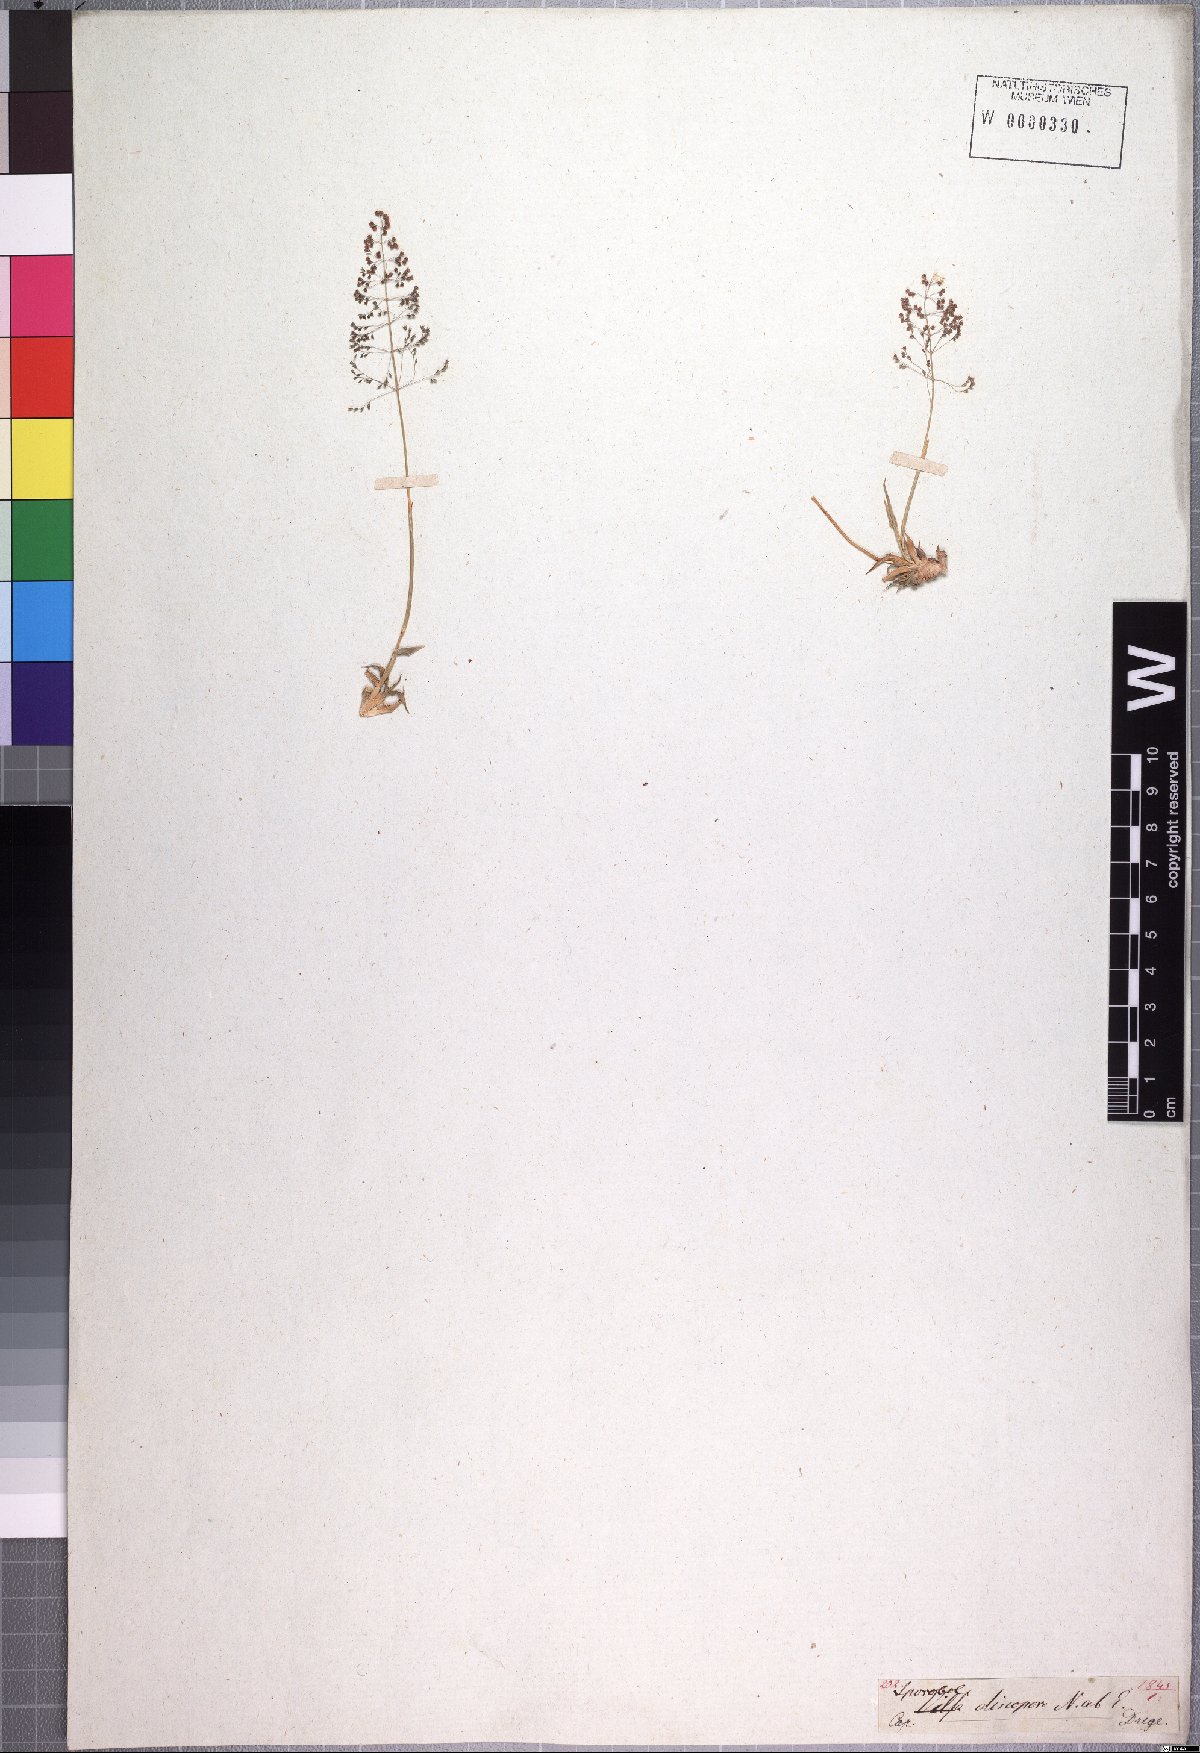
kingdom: Plantae
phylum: Tracheophyta
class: Liliopsida
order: Poales
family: Poaceae
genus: Sporobolus
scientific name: Sporobolus discosporus
